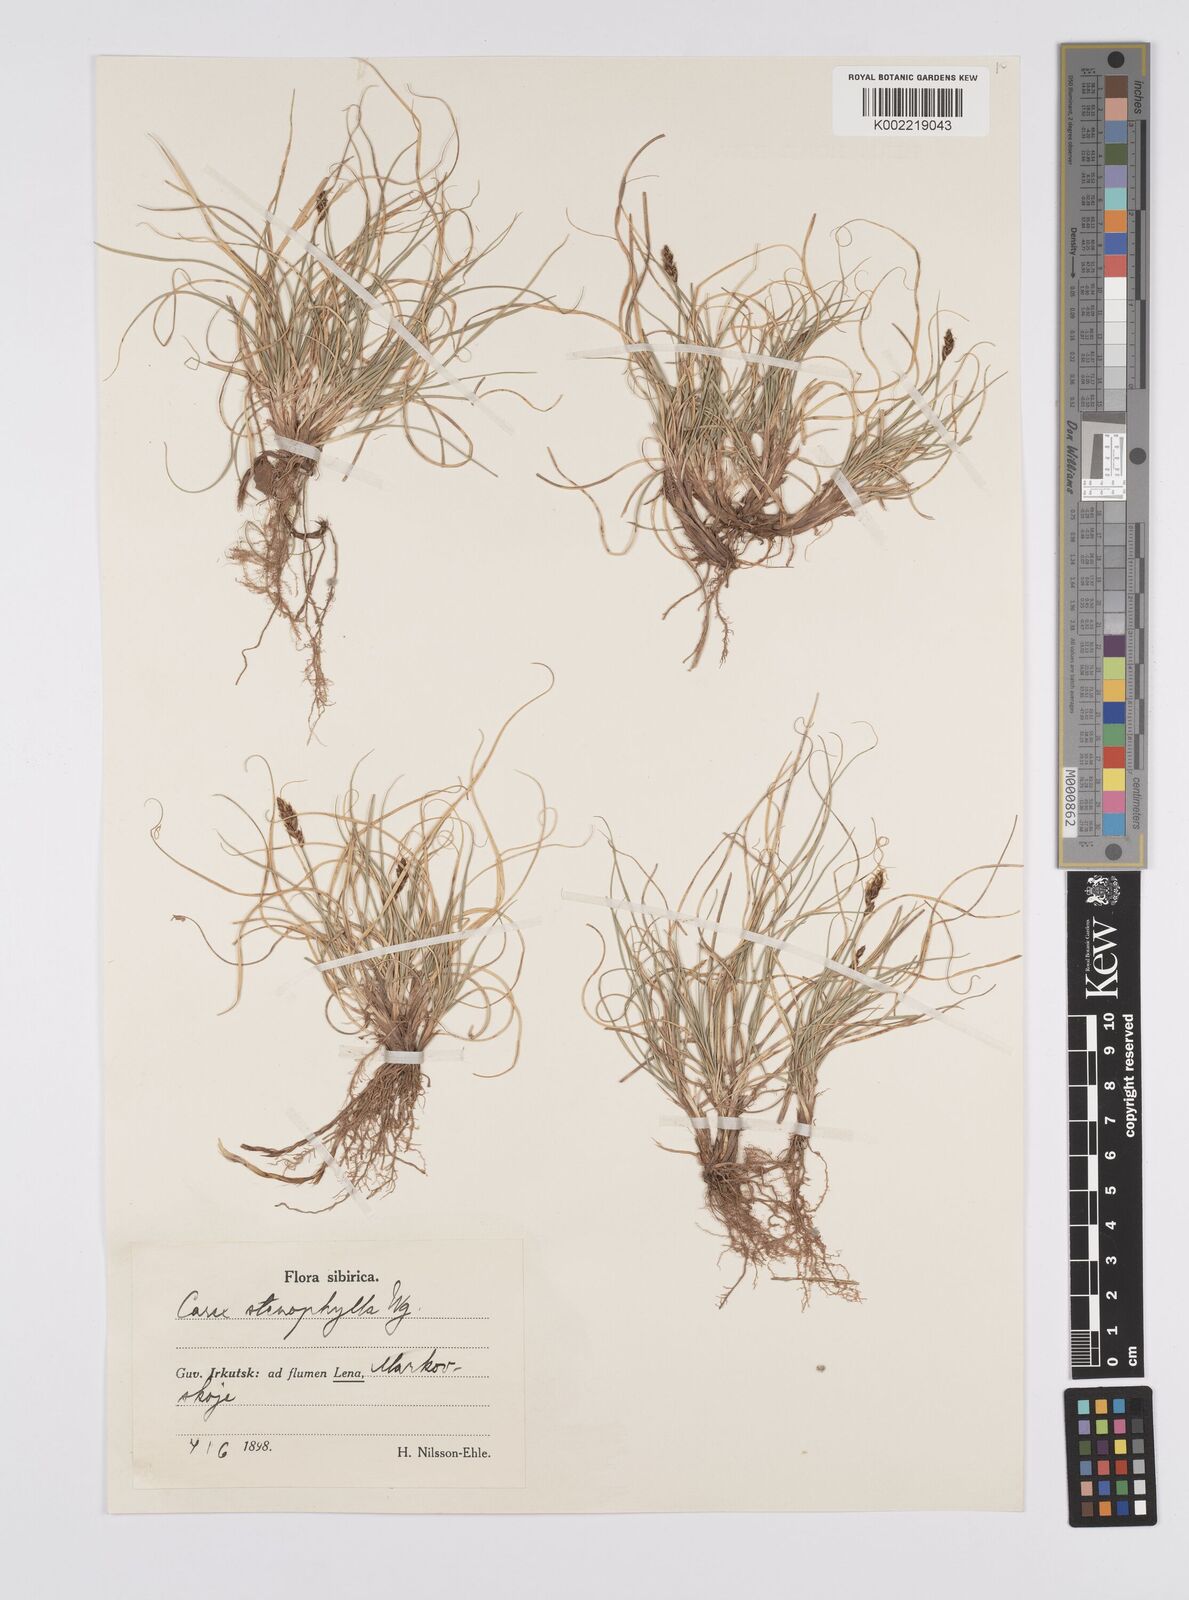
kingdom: Plantae
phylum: Tracheophyta
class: Liliopsida
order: Poales
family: Cyperaceae
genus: Carex
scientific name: Carex yamatsutana
